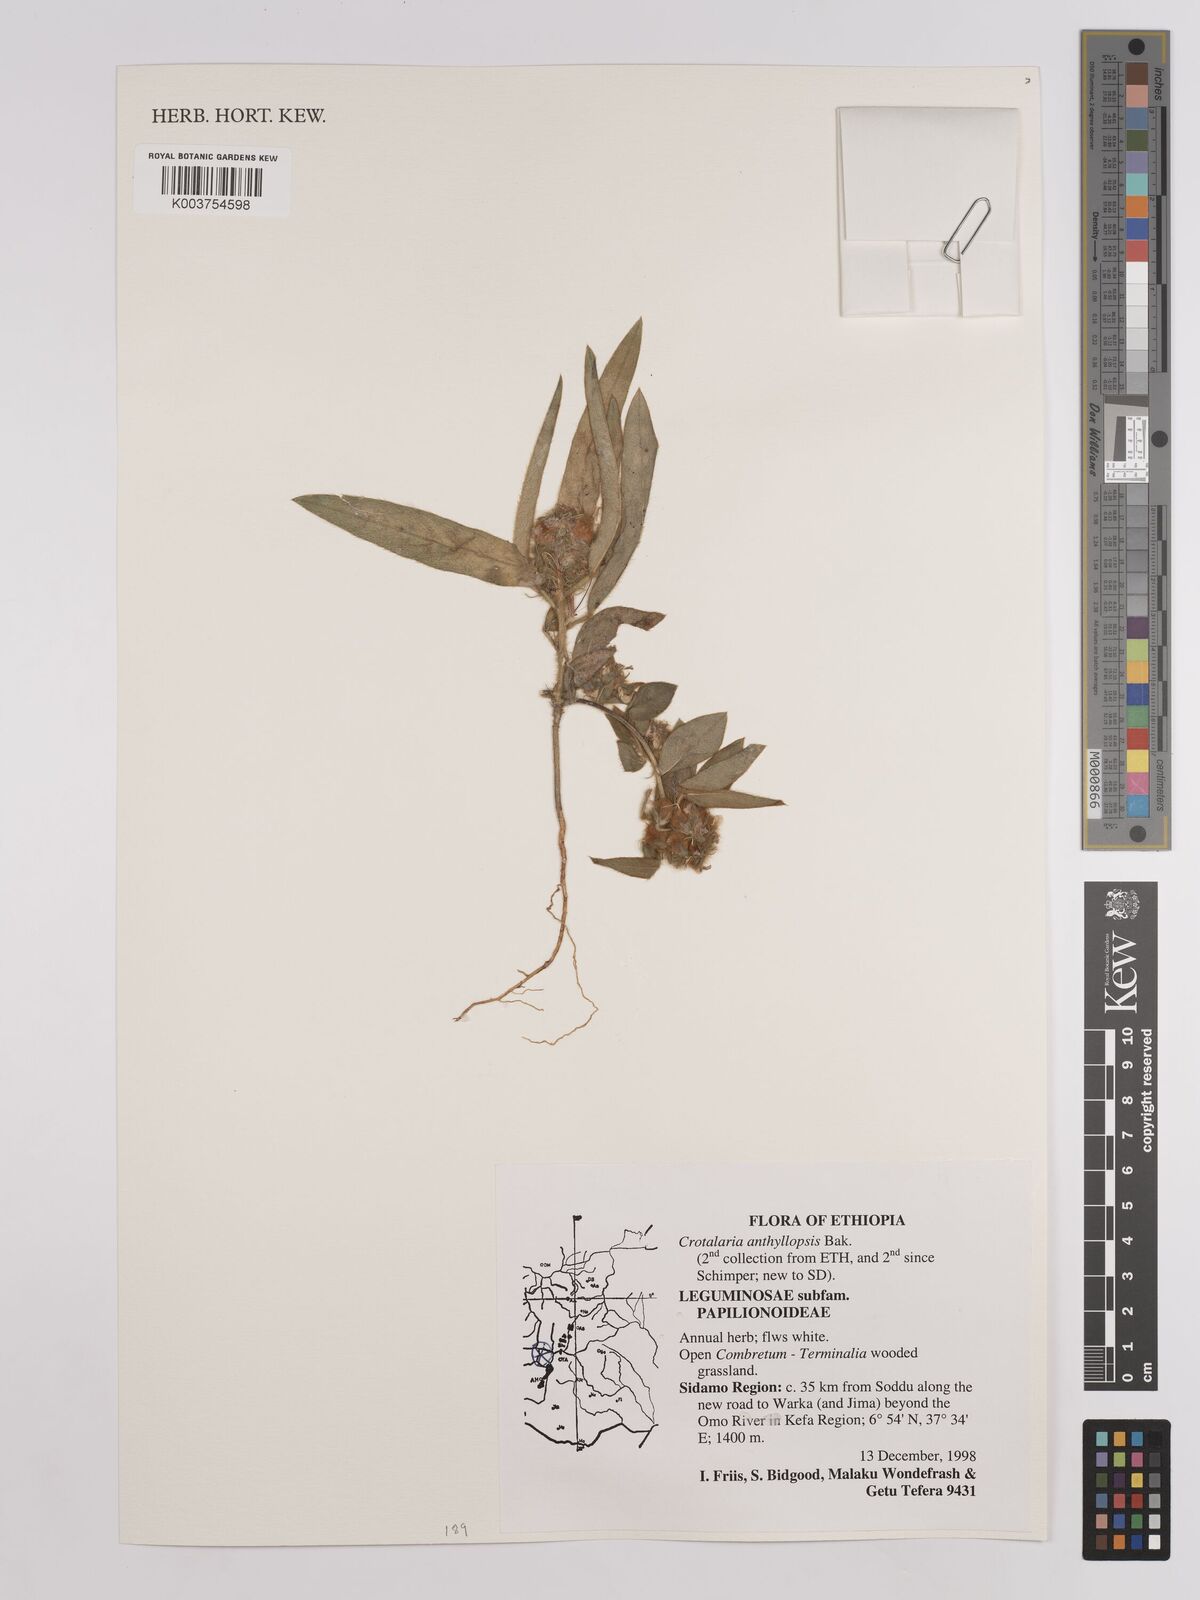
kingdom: Plantae
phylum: Tracheophyta
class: Magnoliopsida
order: Fabales
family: Fabaceae
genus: Crotalaria
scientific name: Crotalaria anthyllopsis
